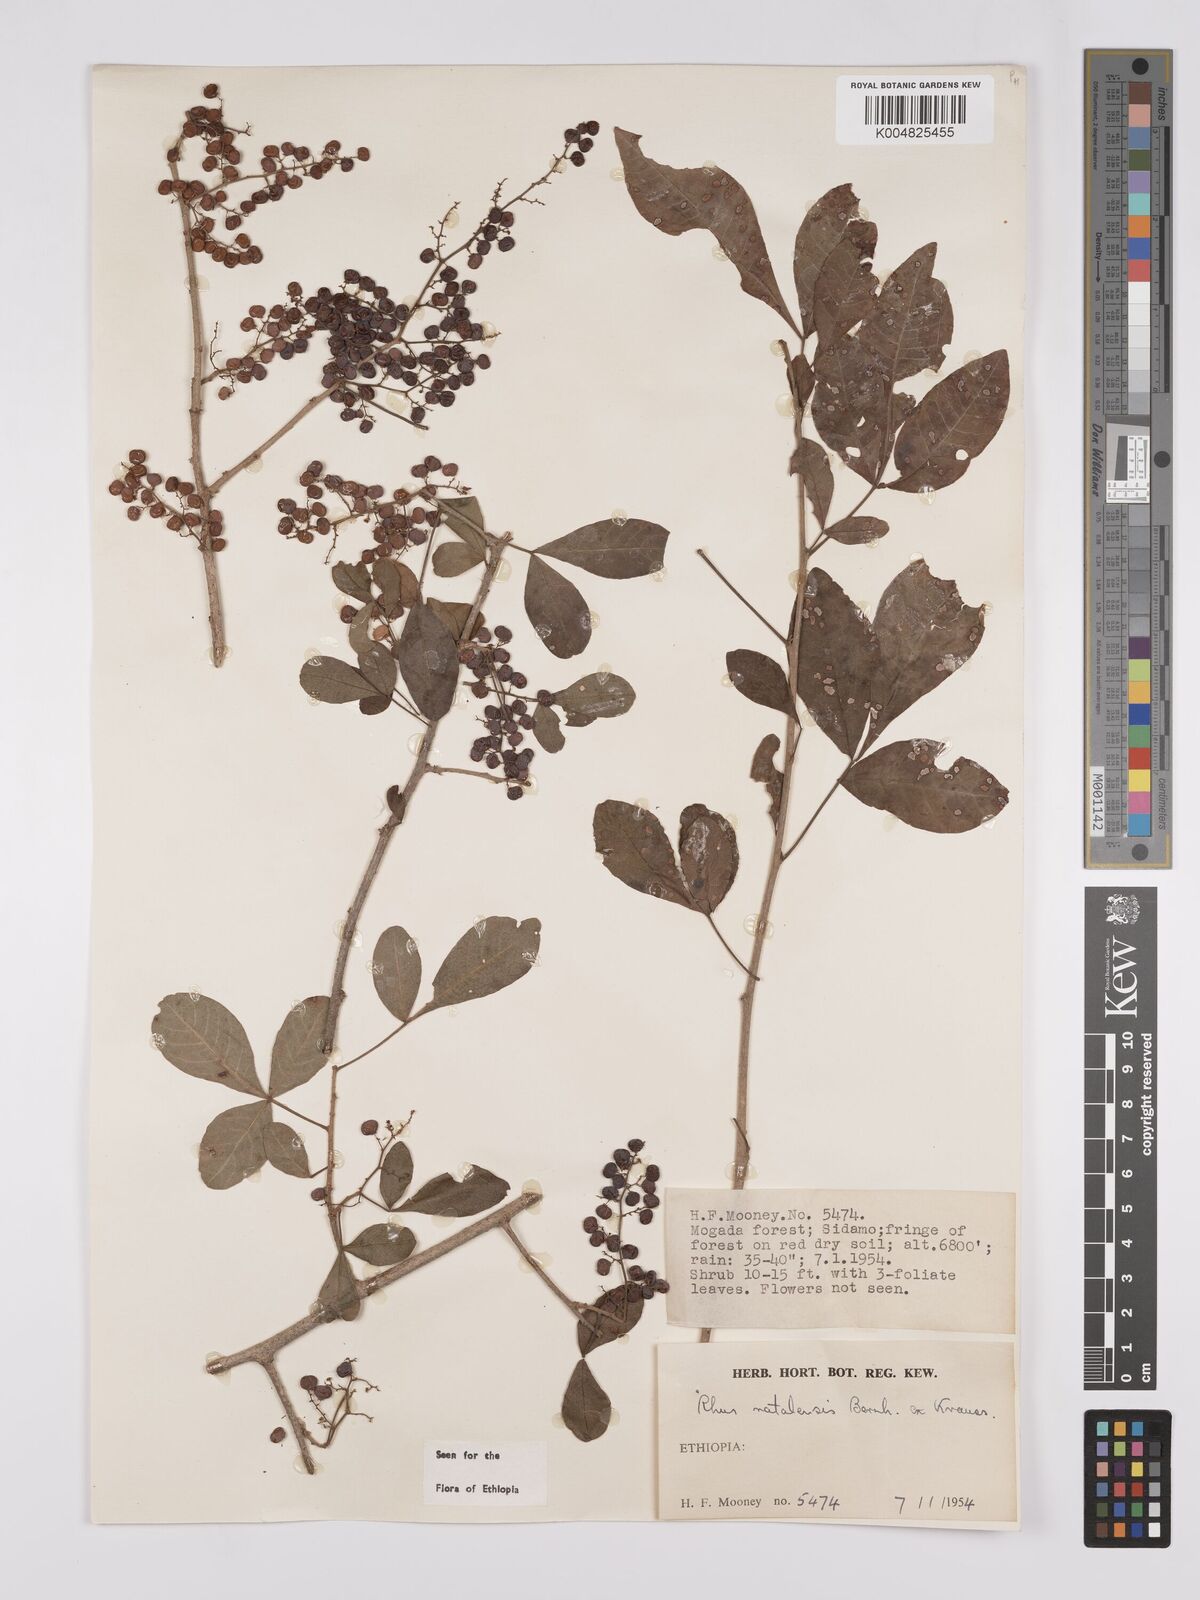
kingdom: Plantae
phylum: Tracheophyta
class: Magnoliopsida
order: Sapindales
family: Anacardiaceae
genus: Searsia
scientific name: Searsia natalensis
